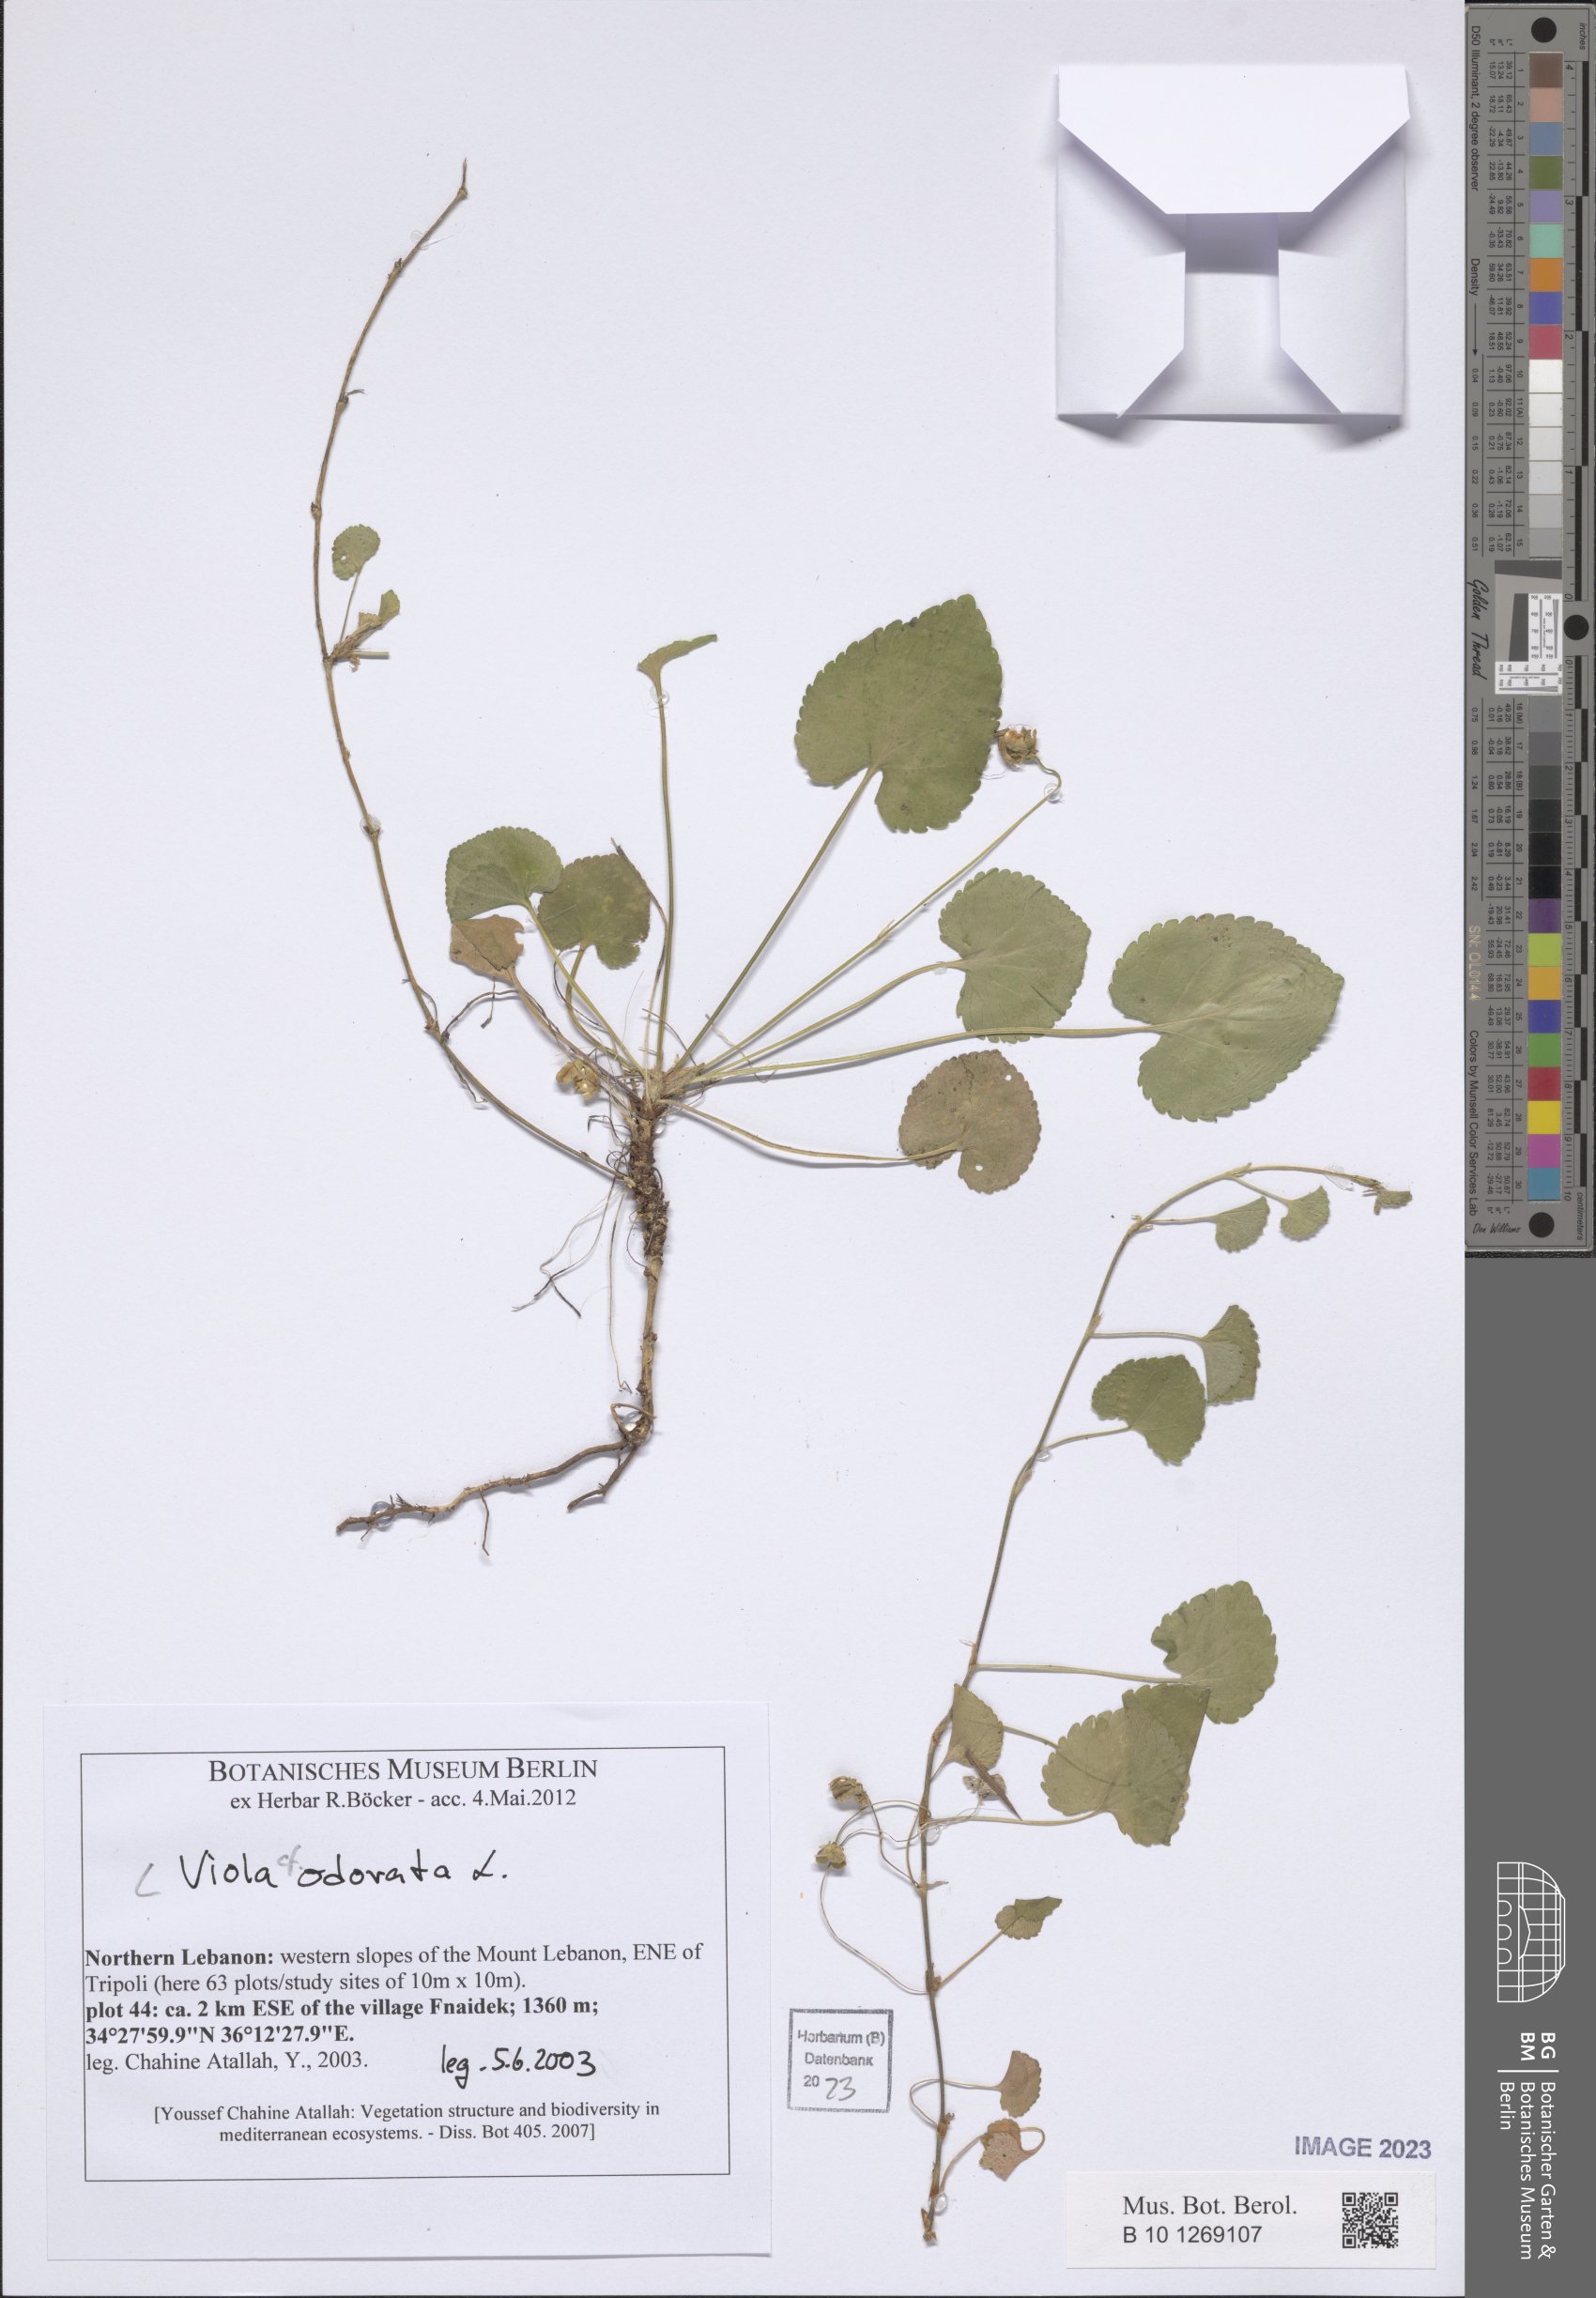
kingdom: Plantae
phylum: Tracheophyta
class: Magnoliopsida
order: Malpighiales
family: Violaceae
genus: Viola
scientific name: Viola odorata
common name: Sweet violet
